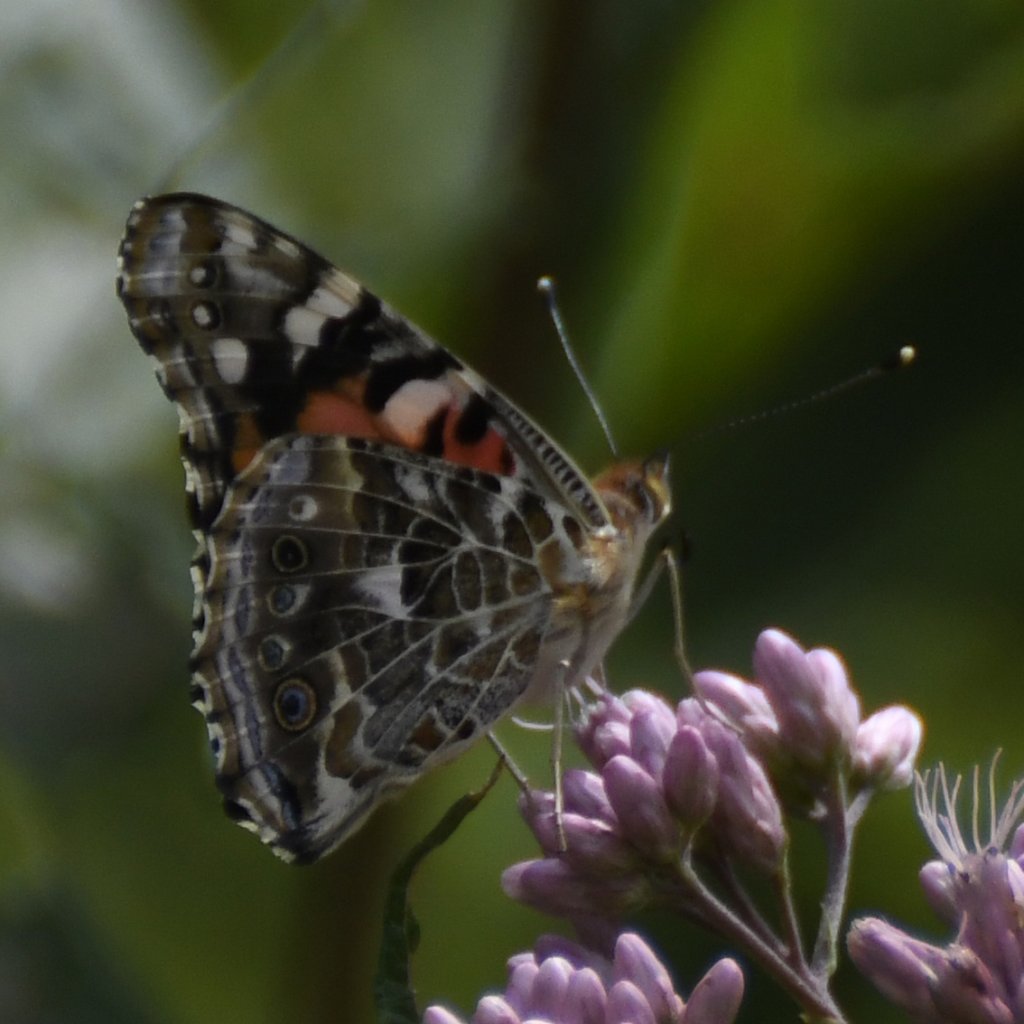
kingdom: Animalia
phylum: Arthropoda
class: Insecta
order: Lepidoptera
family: Nymphalidae
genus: Vanessa
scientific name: Vanessa cardui
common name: Painted Lady
